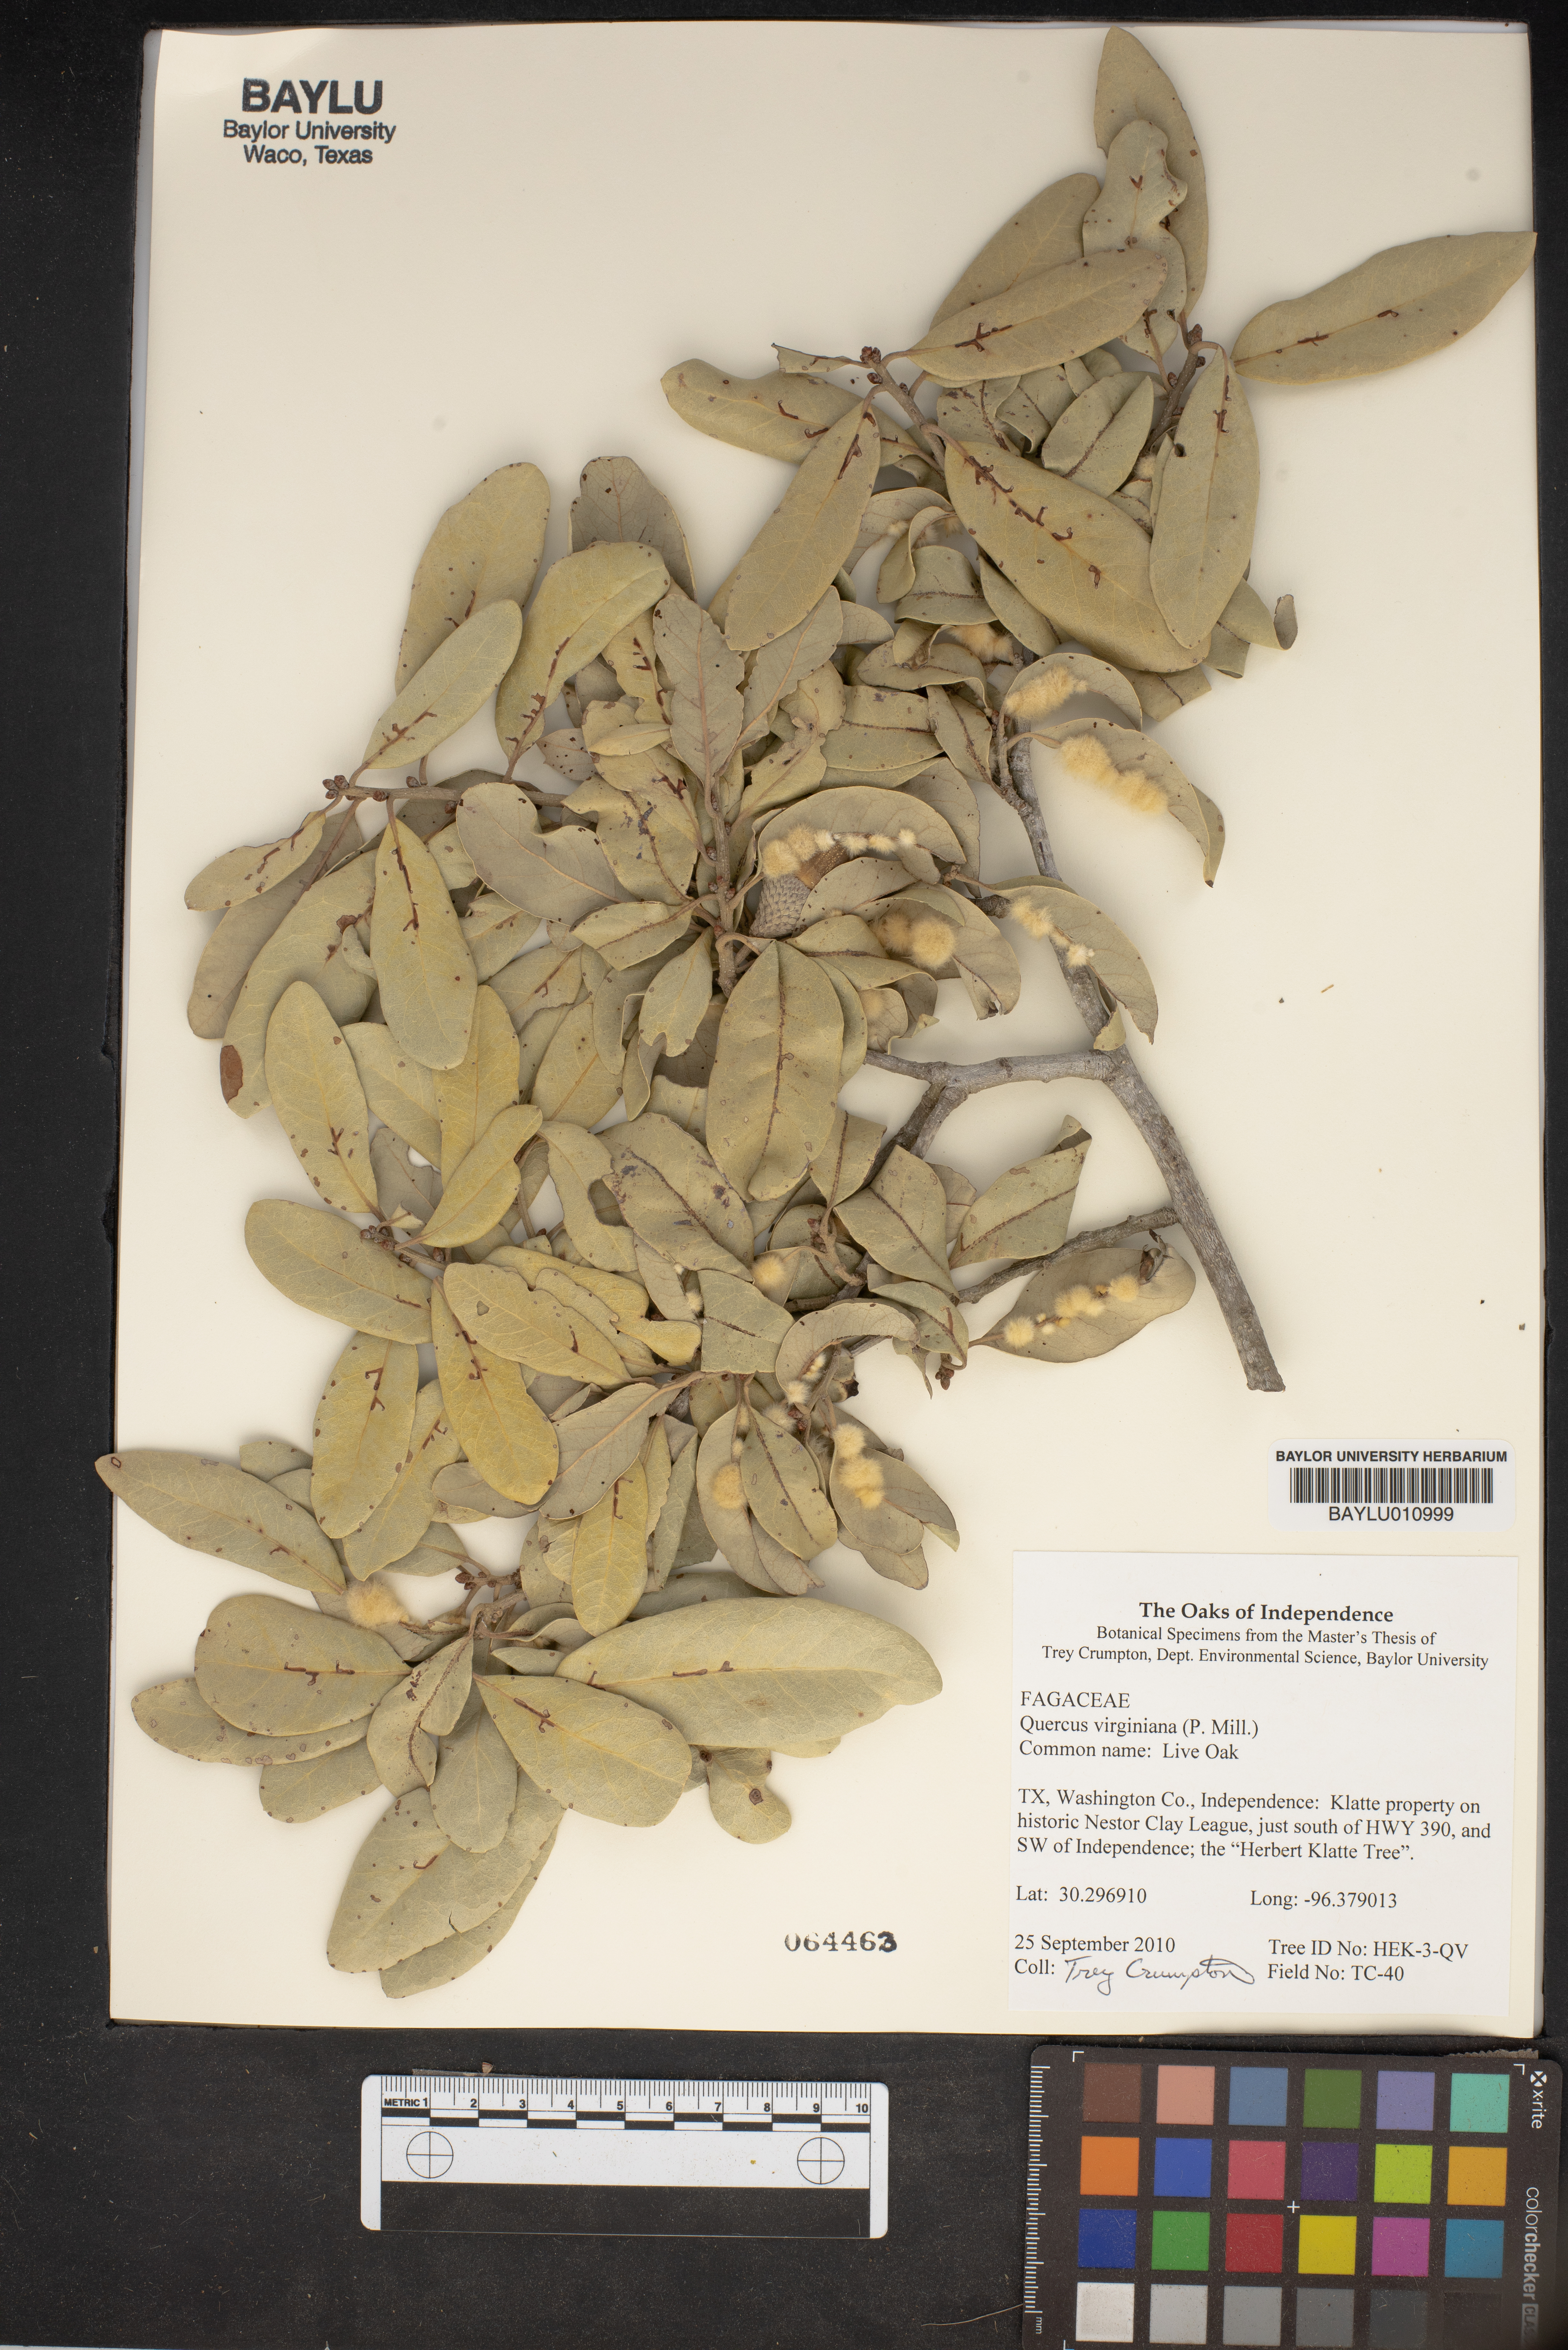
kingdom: Plantae
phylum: Tracheophyta
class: Magnoliopsida
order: Fagales
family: Fagaceae
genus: Quercus
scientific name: Quercus virginiana
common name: Southern live oak
